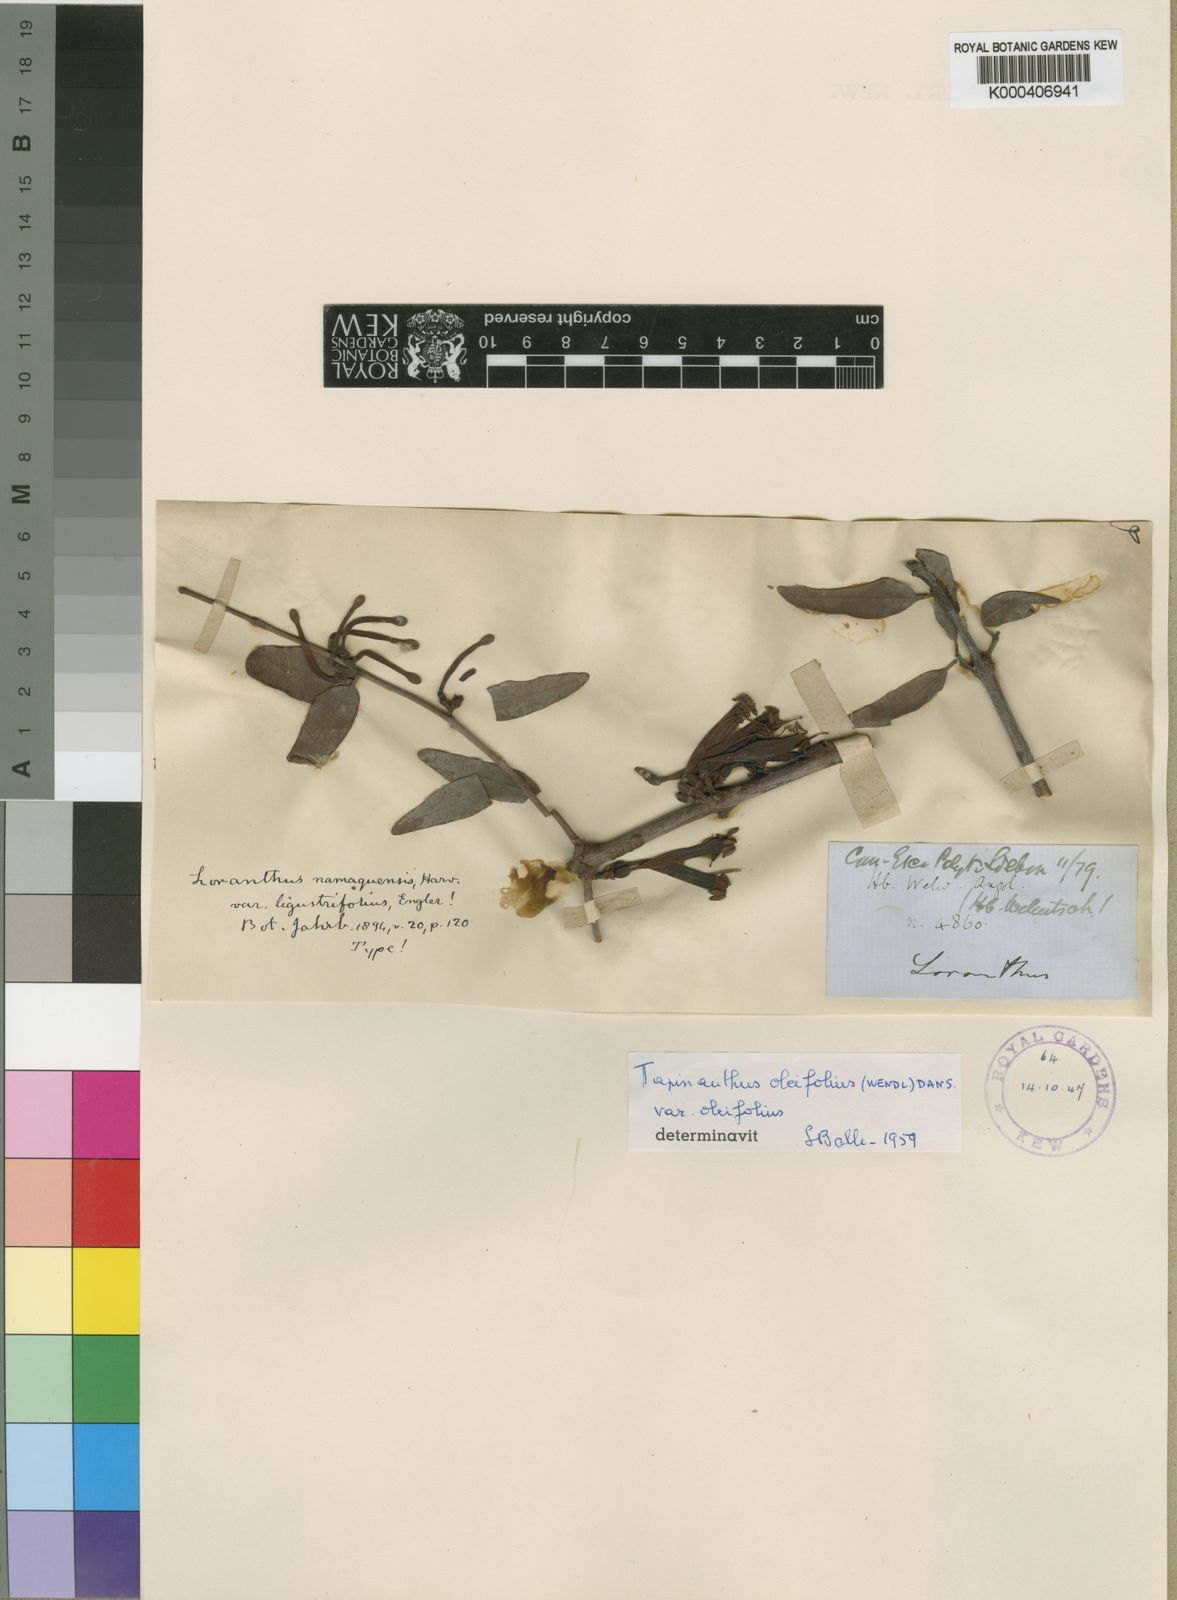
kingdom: Plantae
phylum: Tracheophyta
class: Magnoliopsida
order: Santalales
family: Loranthaceae
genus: Tapinanthus
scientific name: Tapinanthus oleifolius
